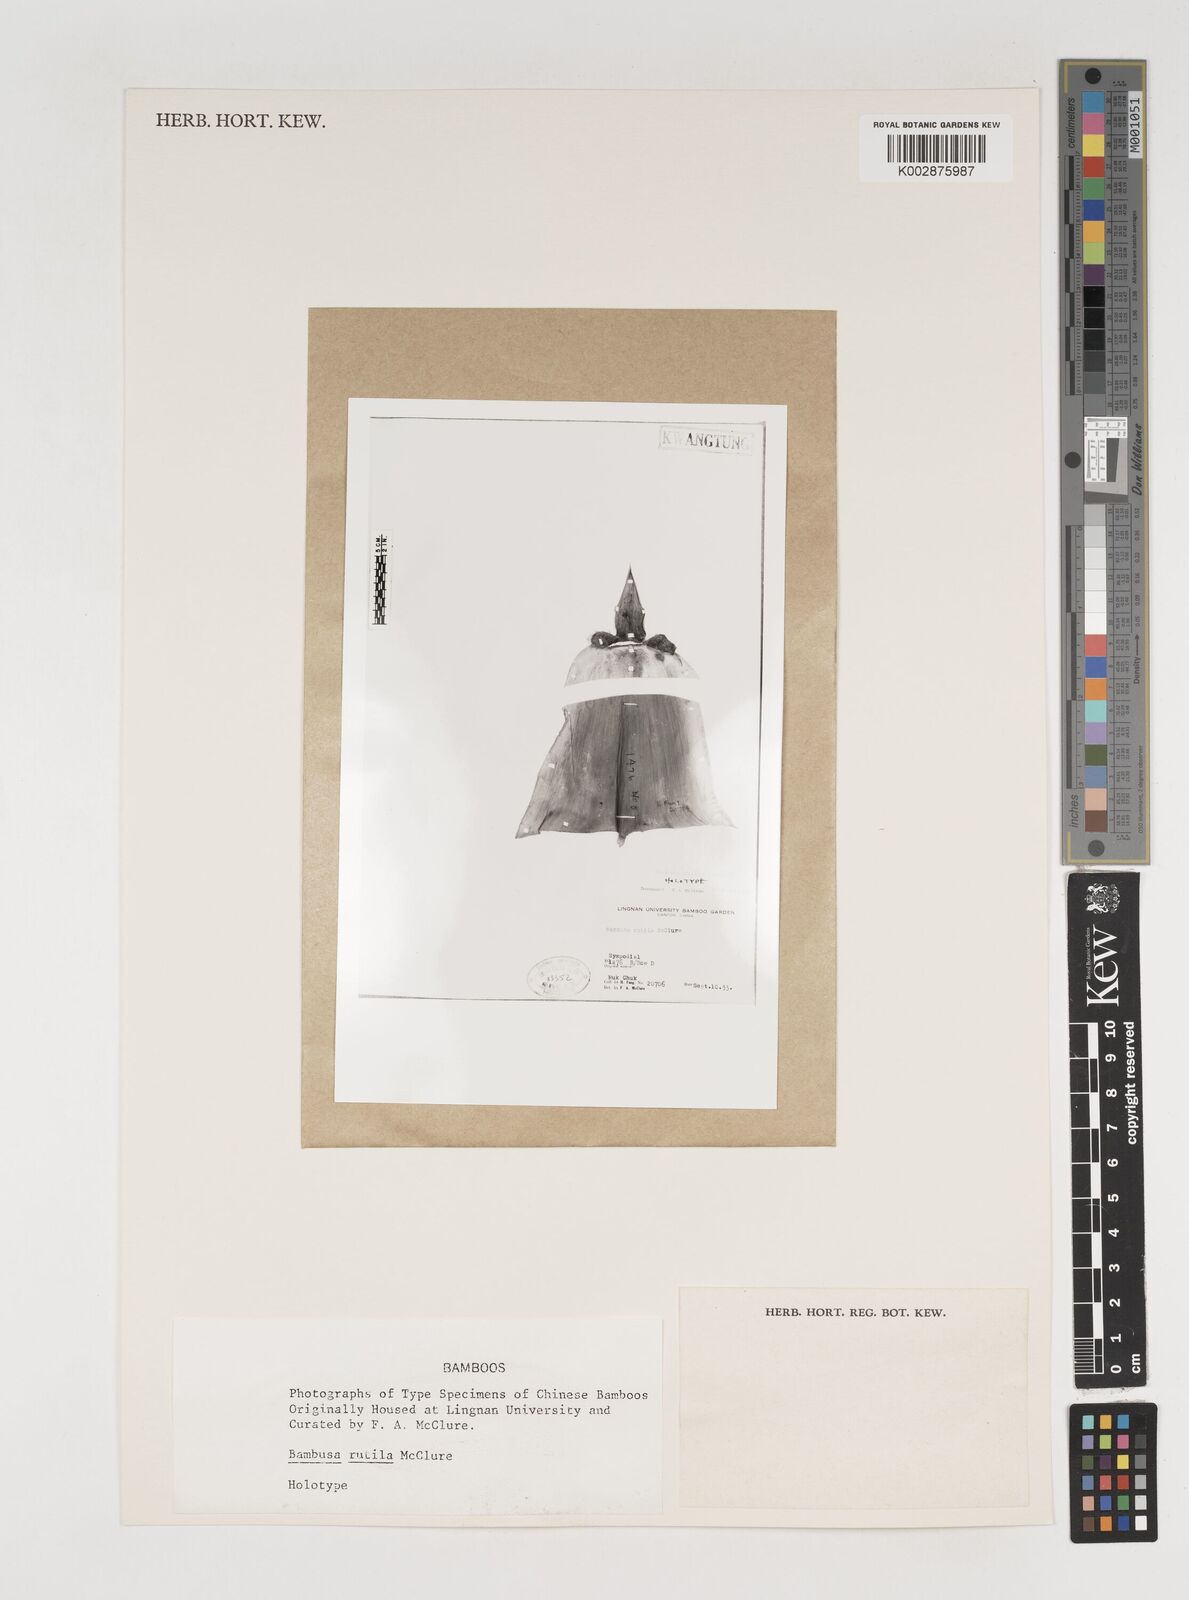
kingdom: Plantae
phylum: Tracheophyta
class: Liliopsida
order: Poales
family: Poaceae
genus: Bambusa
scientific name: Bambusa rutila
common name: Muk bamboo
